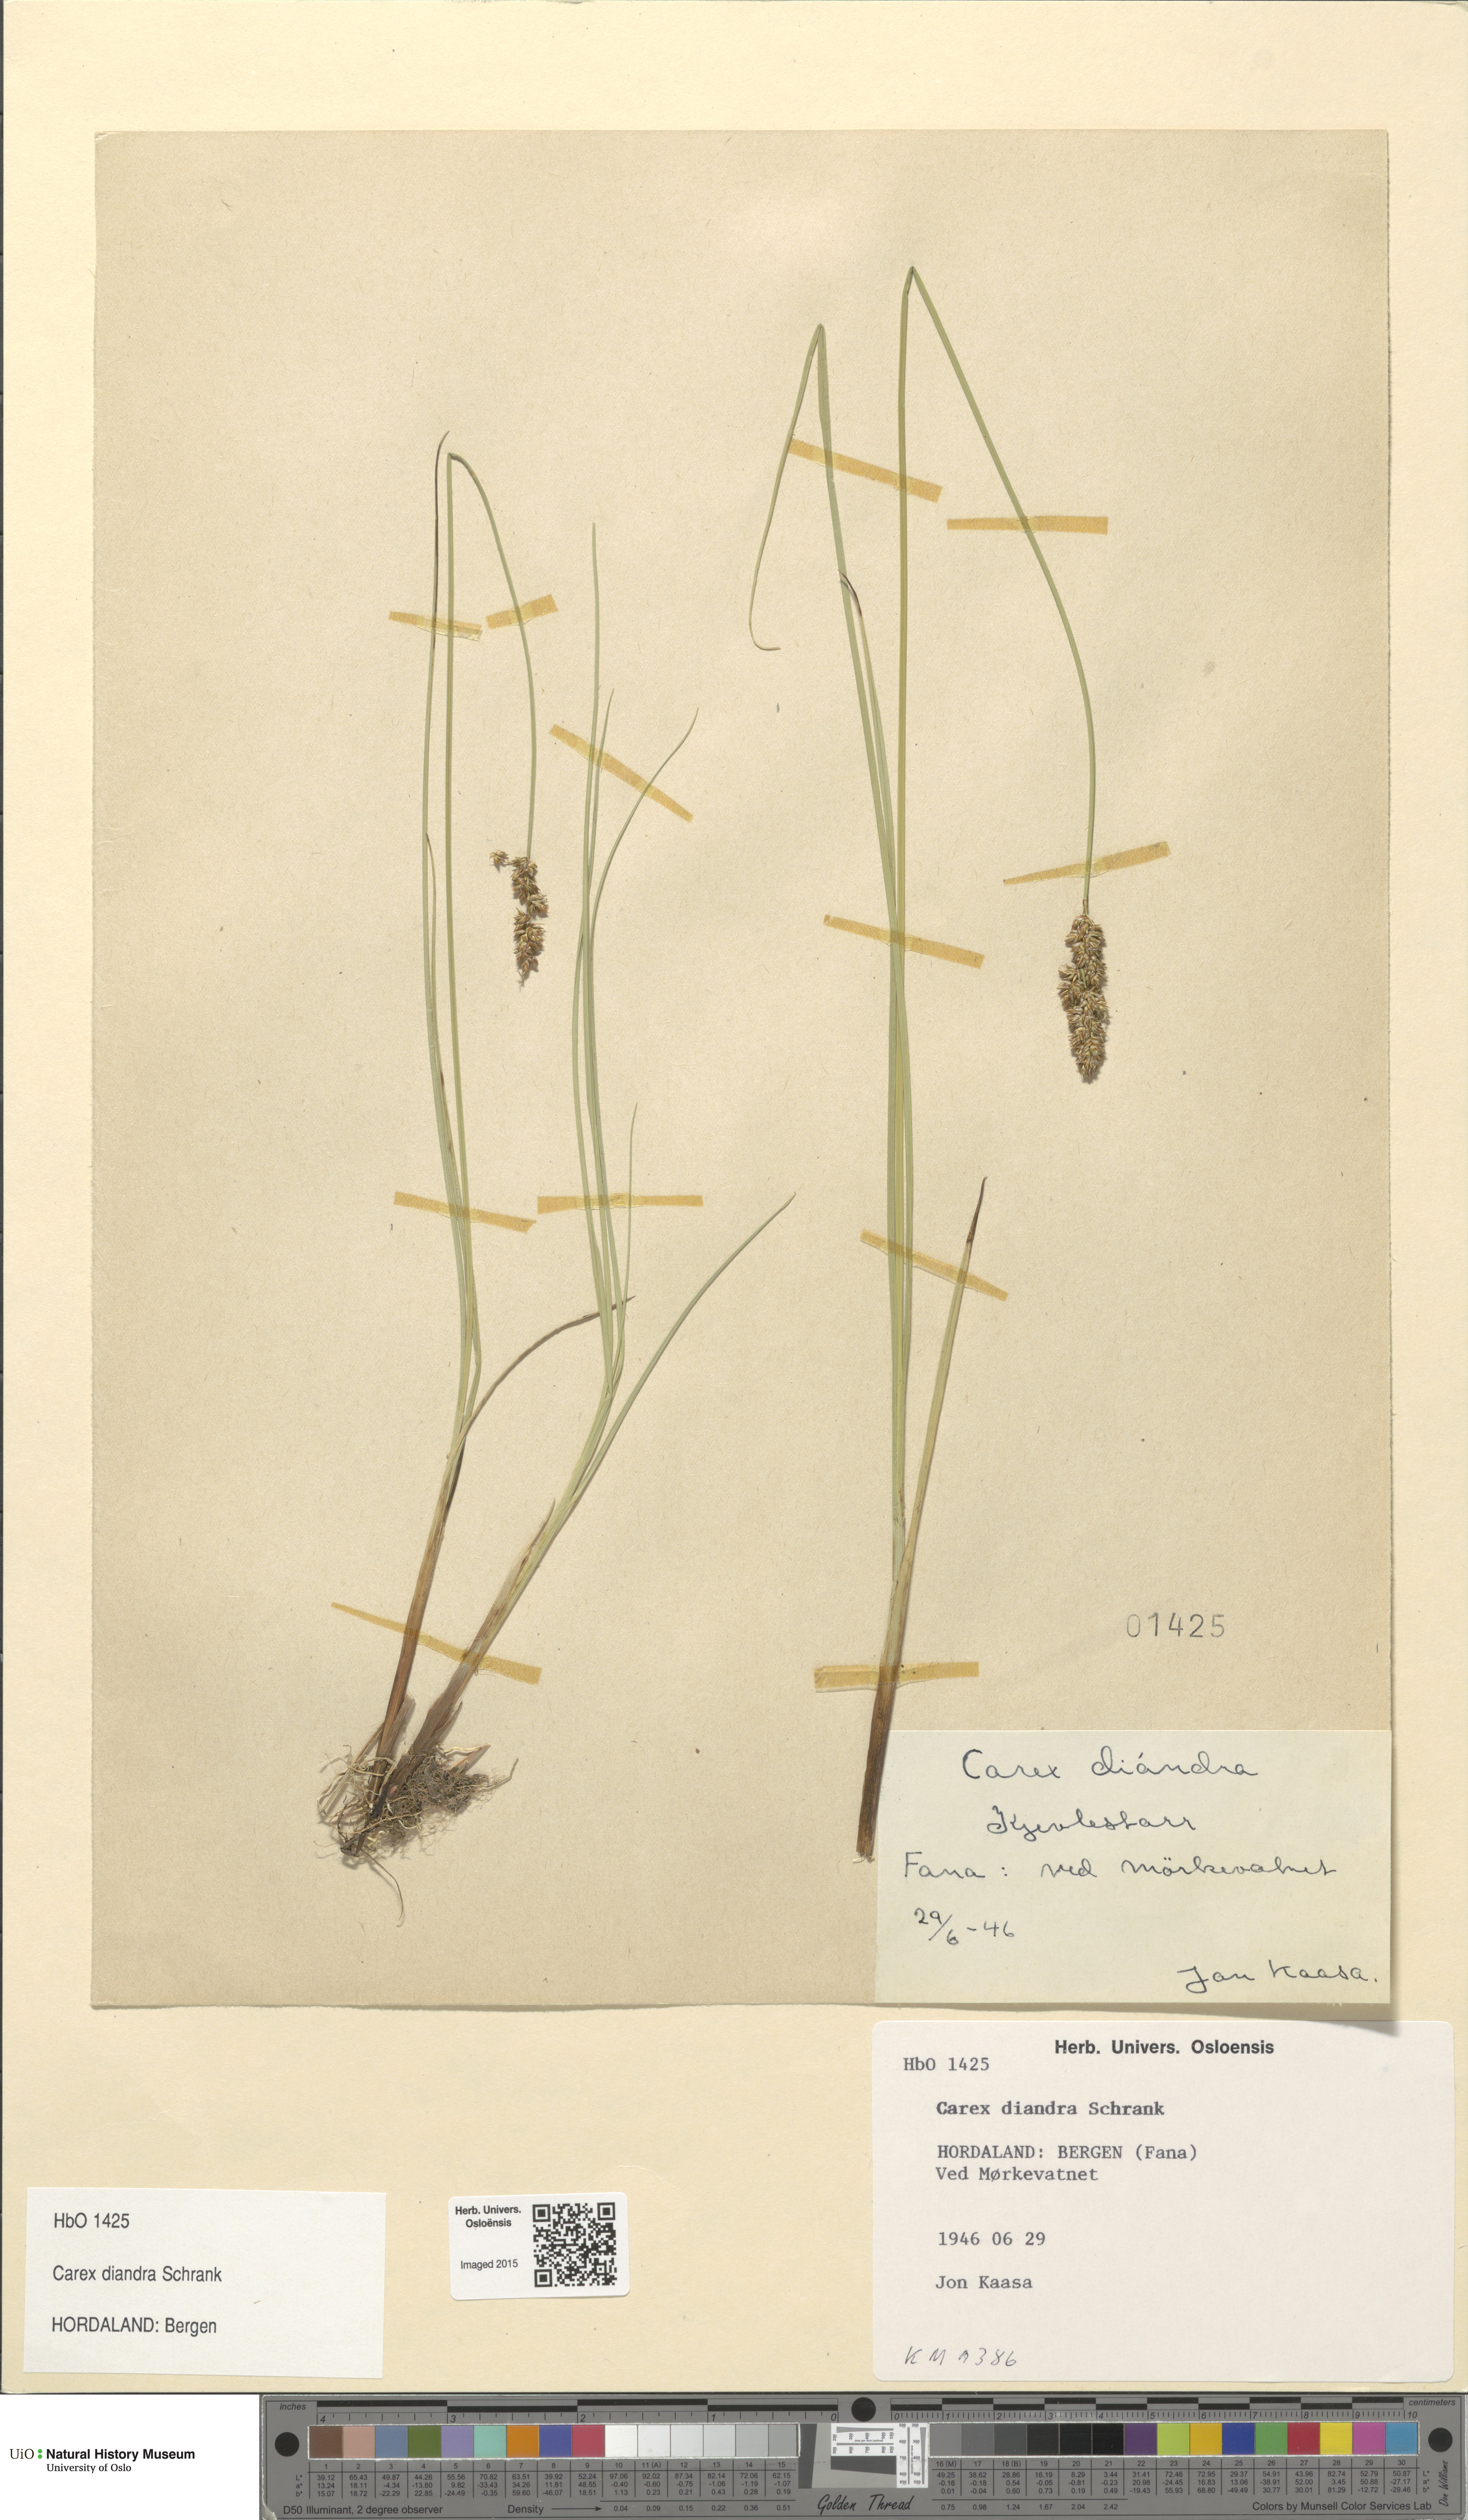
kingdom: Plantae
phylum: Tracheophyta
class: Liliopsida
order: Poales
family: Cyperaceae
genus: Carex
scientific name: Carex diandra
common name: Lesser tussock-sedge
